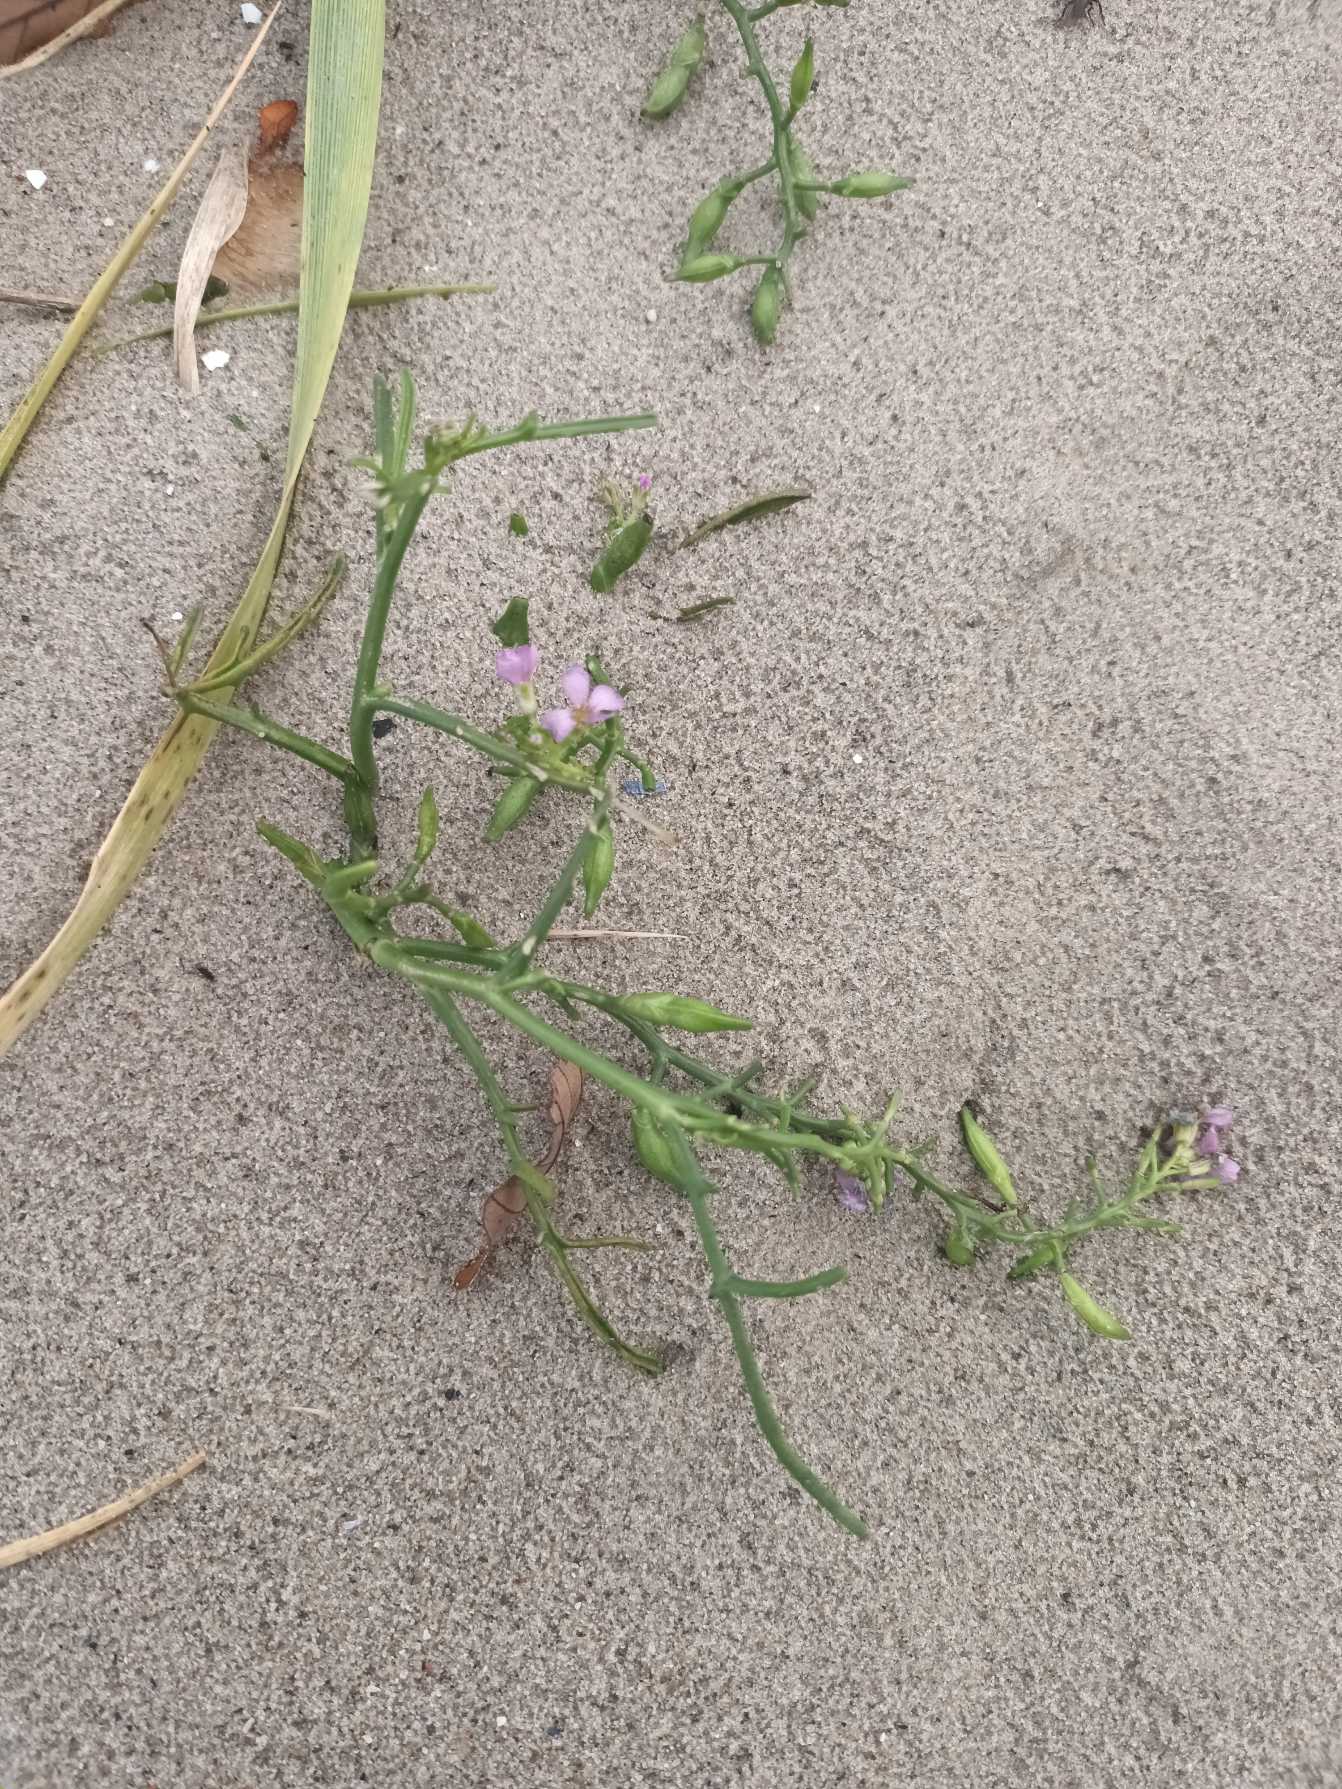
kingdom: Plantae
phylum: Tracheophyta
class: Magnoliopsida
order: Brassicales
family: Brassicaceae
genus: Cakile
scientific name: Cakile maritima
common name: Strandsennep
